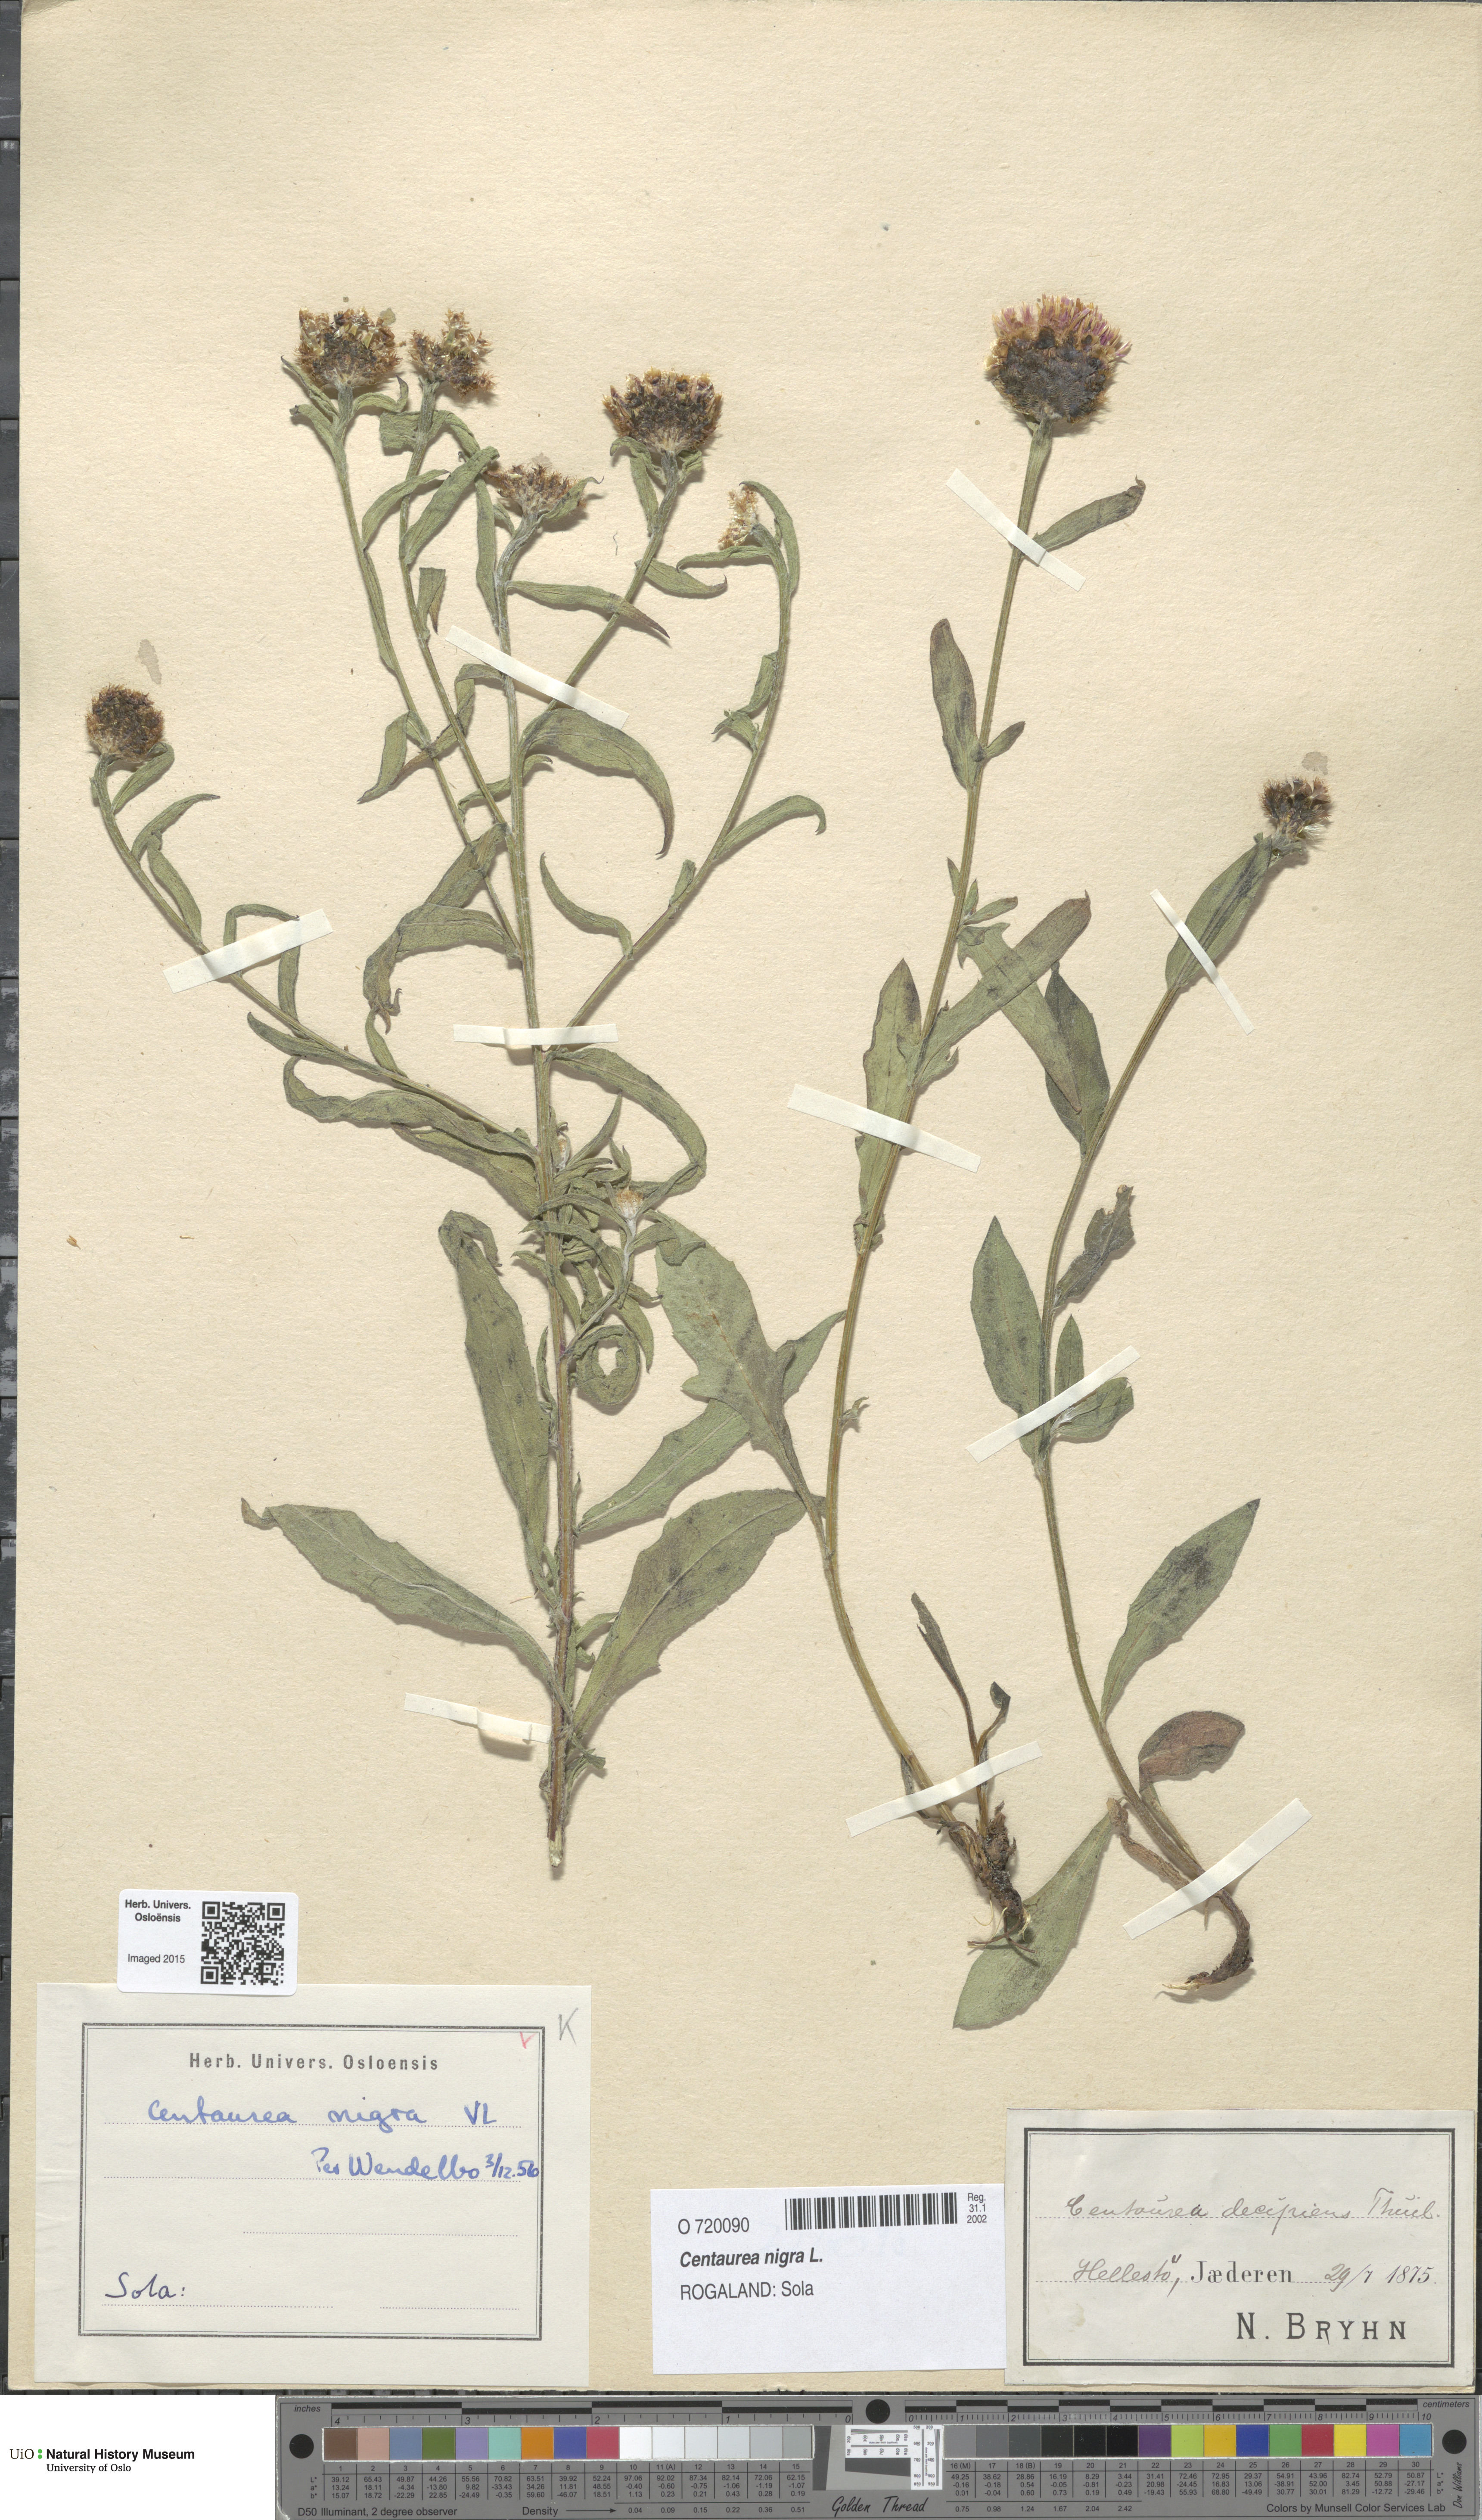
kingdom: Plantae
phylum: Tracheophyta
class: Magnoliopsida
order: Asterales
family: Asteraceae
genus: Centaurea
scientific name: Centaurea nigra
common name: Lesser knapweed
